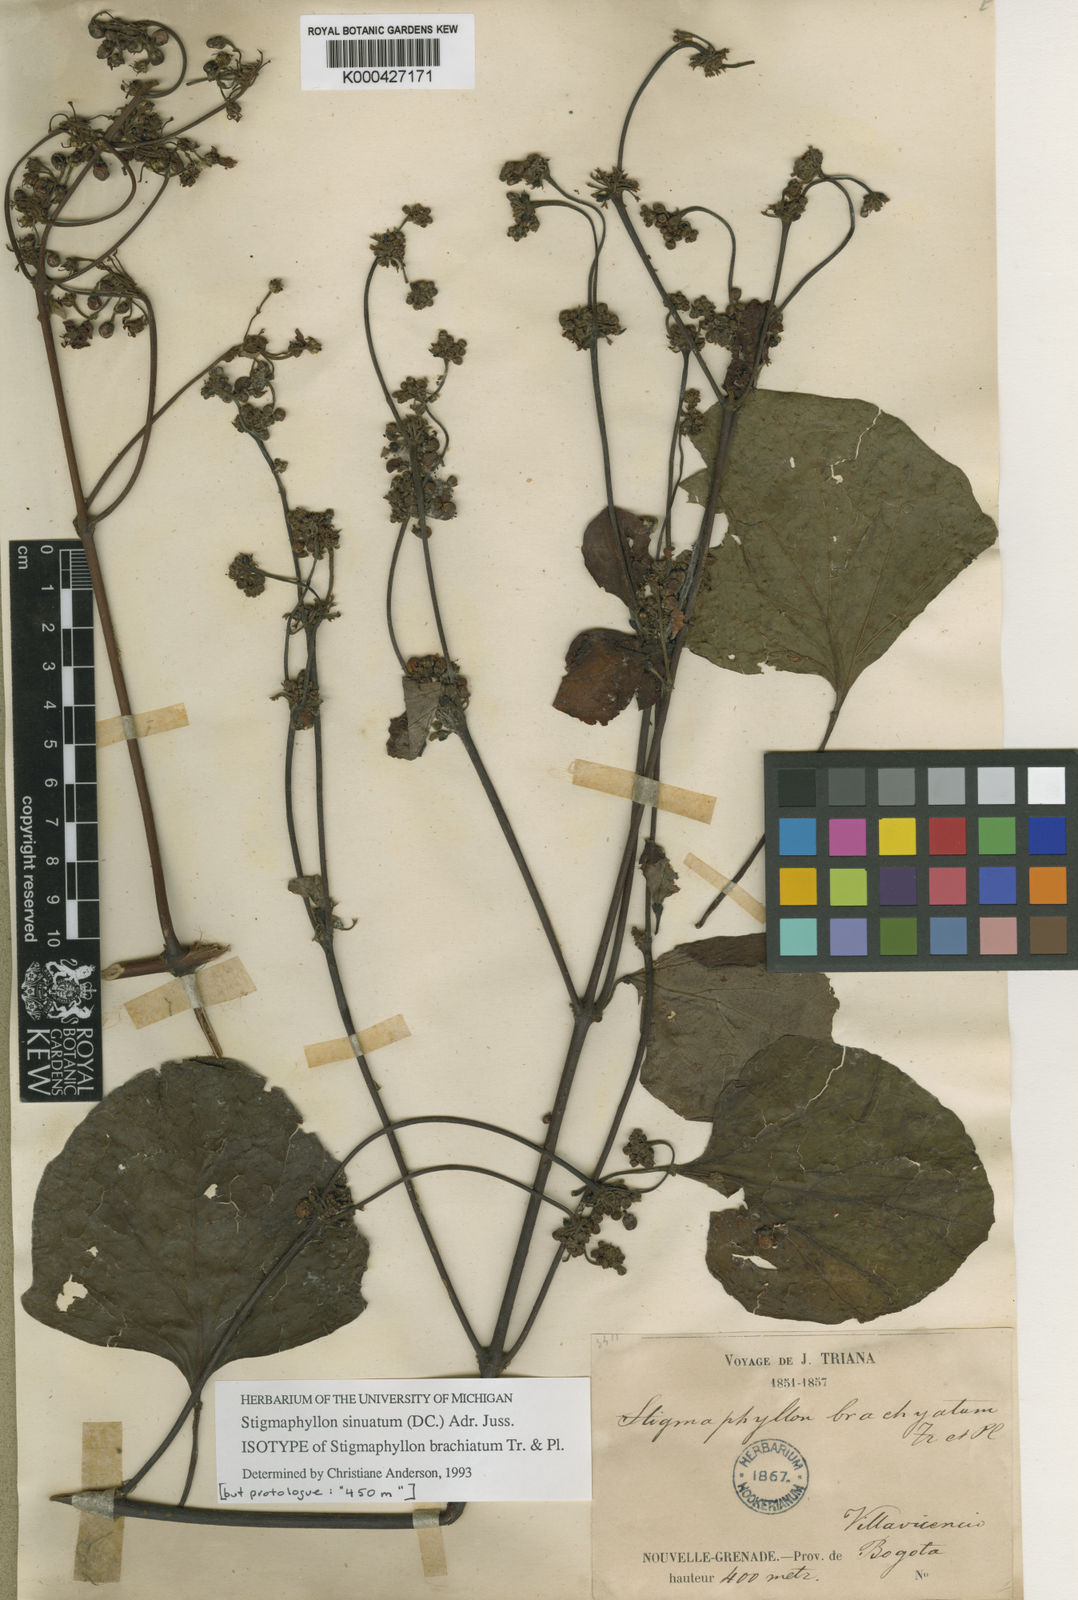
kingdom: Plantae
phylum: Tracheophyta
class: Magnoliopsida
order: Malpighiales
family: Malpighiaceae
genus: Stigmaphyllon
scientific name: Stigmaphyllon sinuatum
